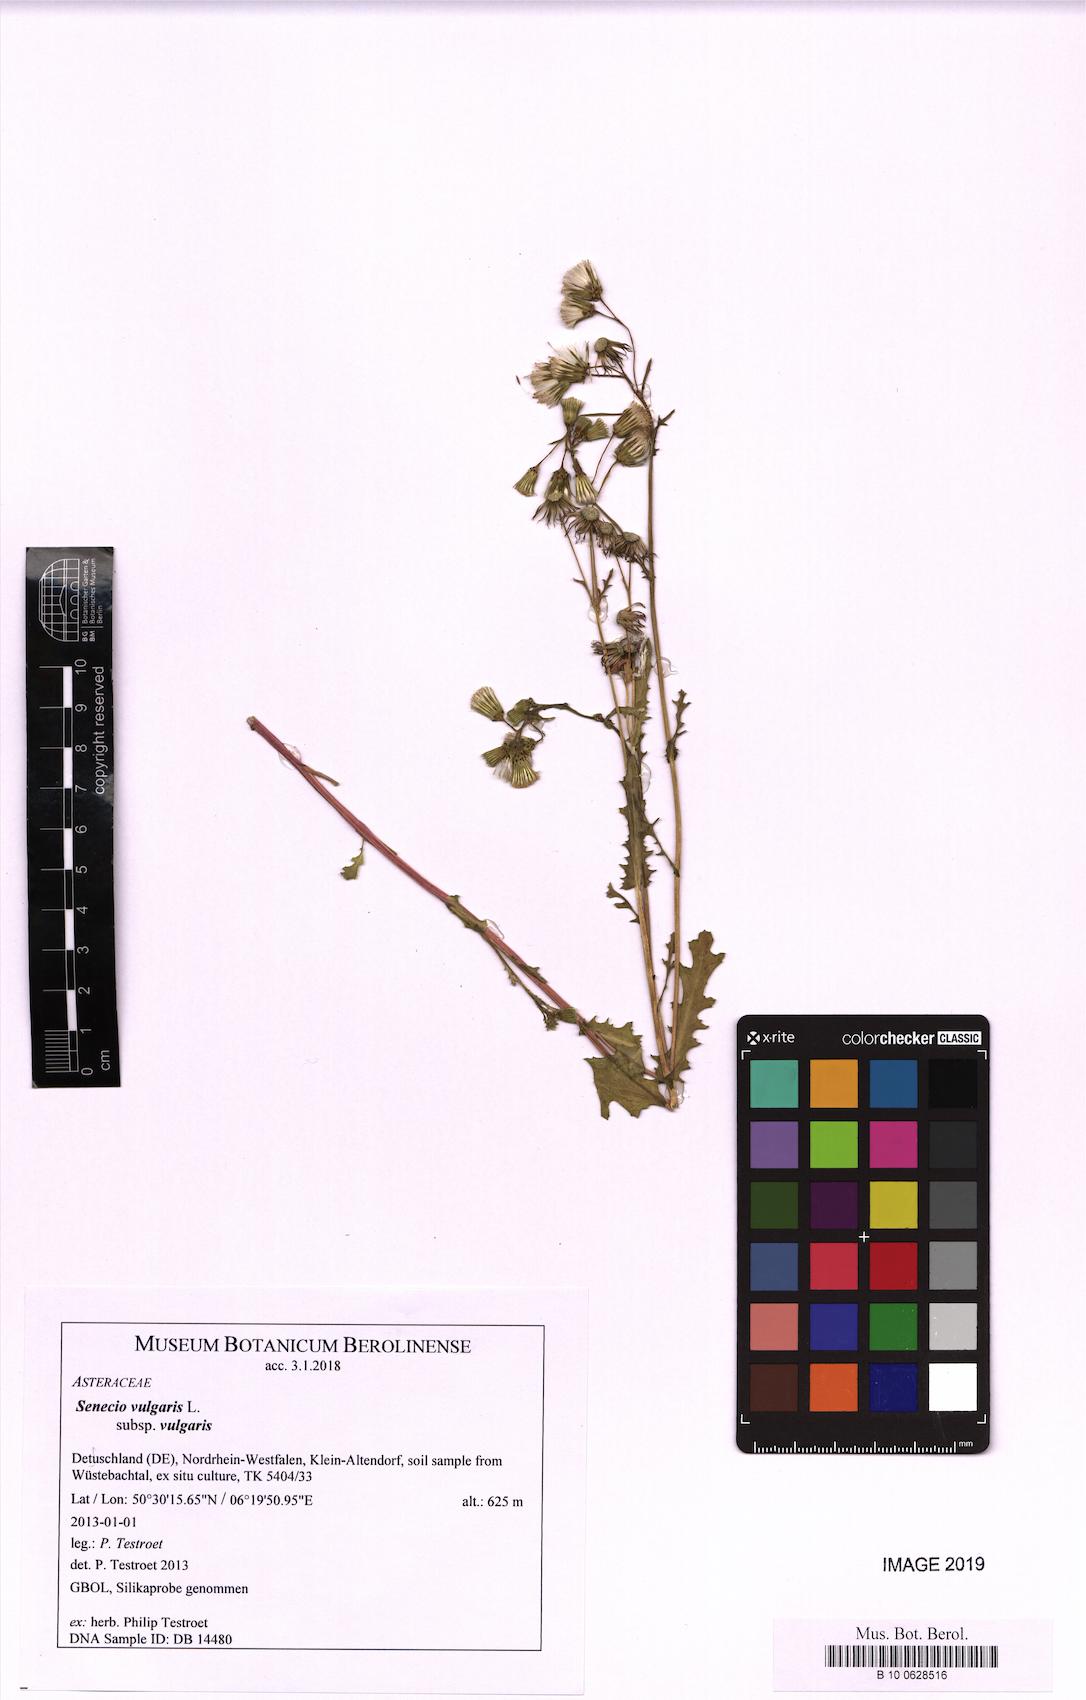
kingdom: Plantae
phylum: Tracheophyta
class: Magnoliopsida
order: Asterales
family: Asteraceae
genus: Senecio
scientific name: Senecio vulgaris
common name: Old-man-in-the-spring
